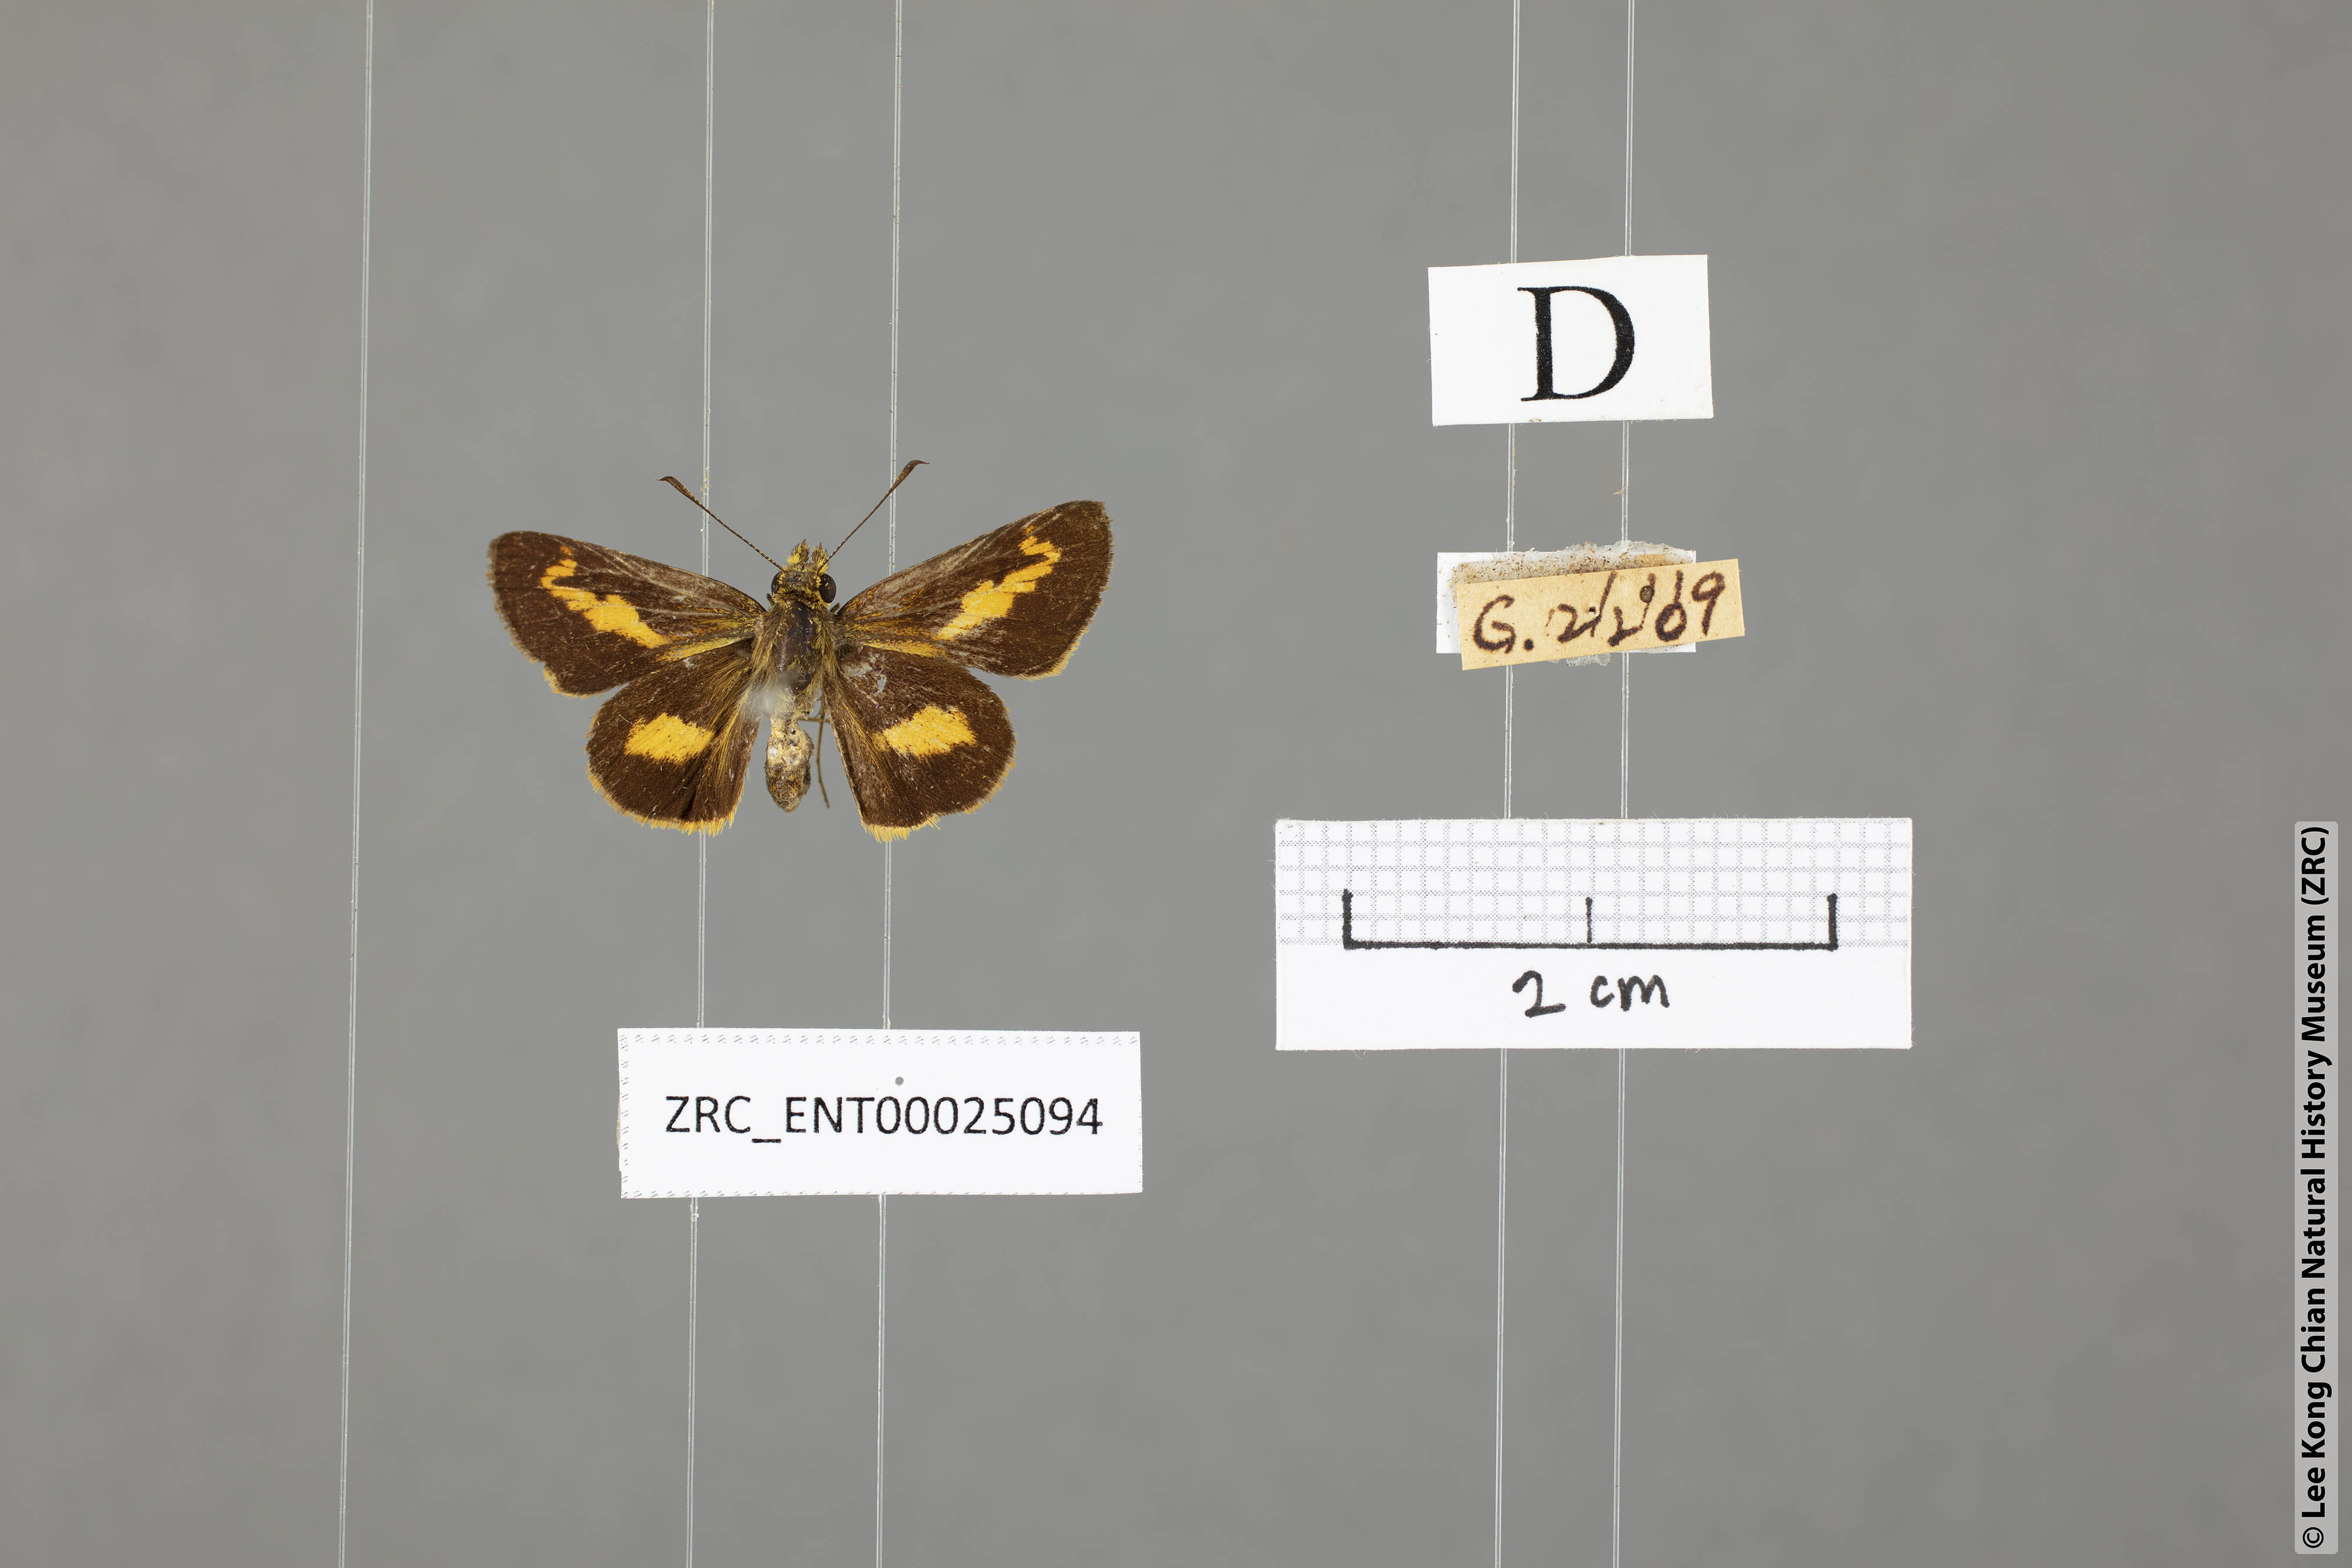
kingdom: Animalia
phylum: Arthropoda
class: Insecta
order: Lepidoptera
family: Hesperiidae
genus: Oriens
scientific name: Oriens paragola
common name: Malay dartlet
